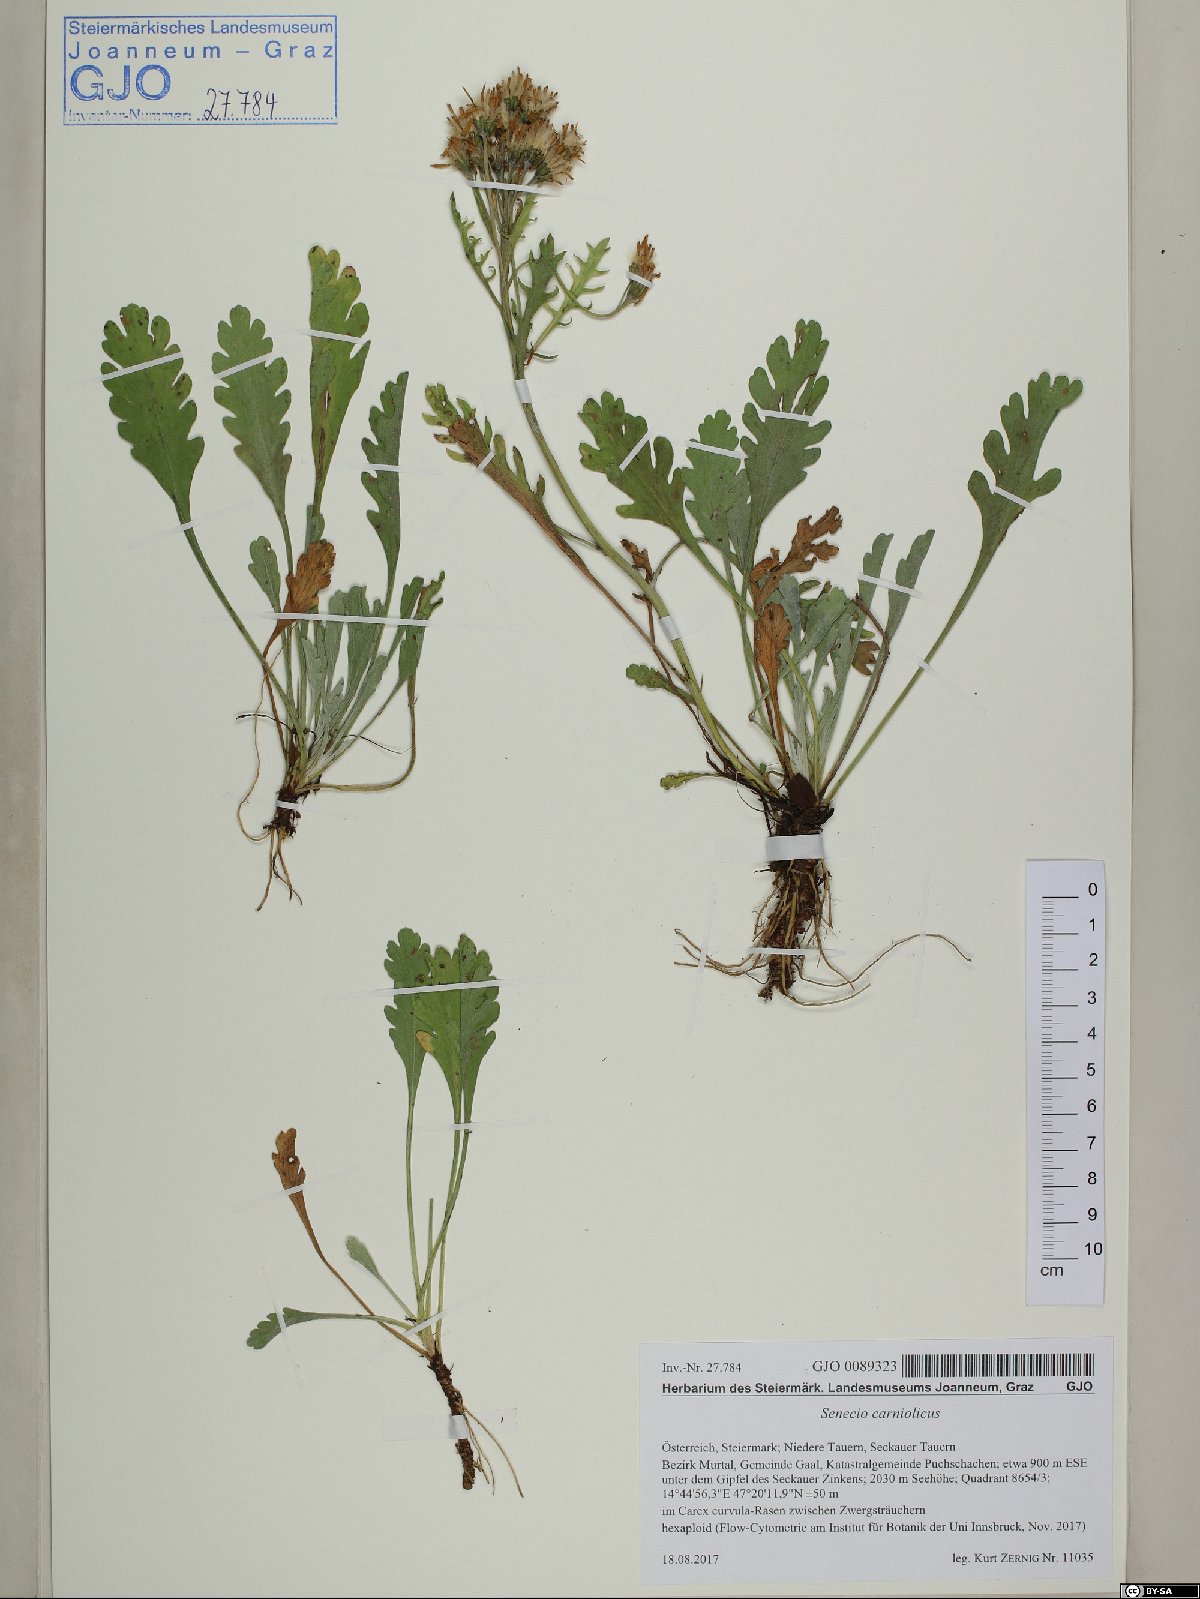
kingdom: Plantae
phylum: Tracheophyta
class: Magnoliopsida
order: Asterales
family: Asteraceae
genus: Jacobaea
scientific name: Jacobaea carniolica
